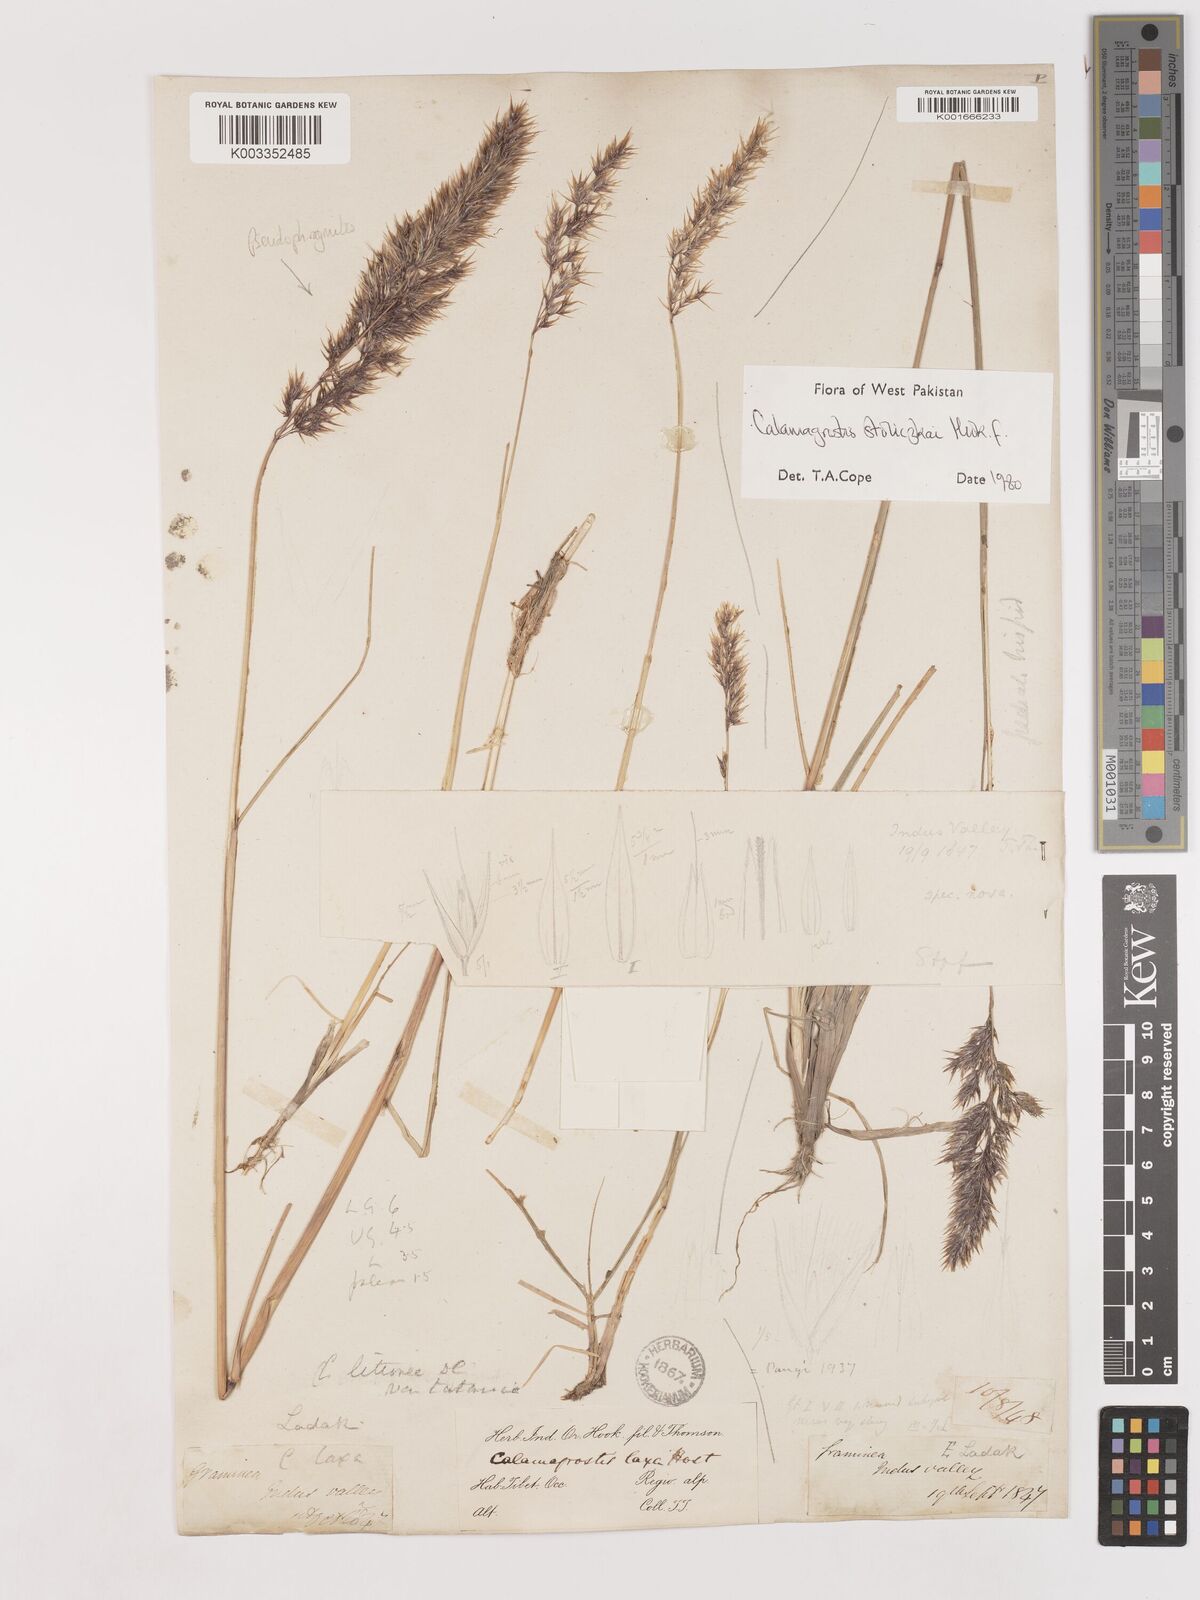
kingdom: Plantae
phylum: Tracheophyta
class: Liliopsida
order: Poales
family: Poaceae
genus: Calamagrostis
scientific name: Calamagrostis stolizkae
